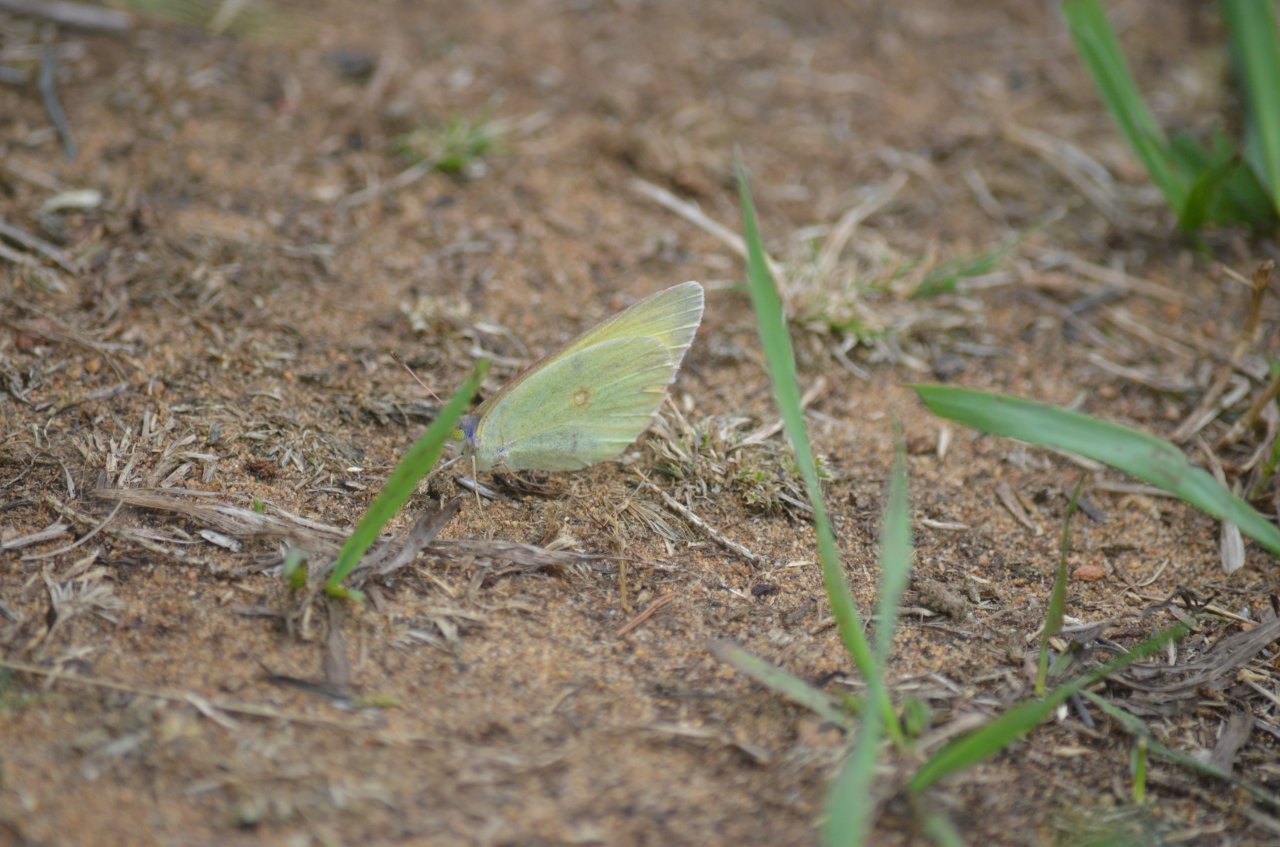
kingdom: Animalia
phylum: Arthropoda
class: Insecta
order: Lepidoptera
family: Pieridae
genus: Colias
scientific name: Colias philodice
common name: Clouded Sulphur
